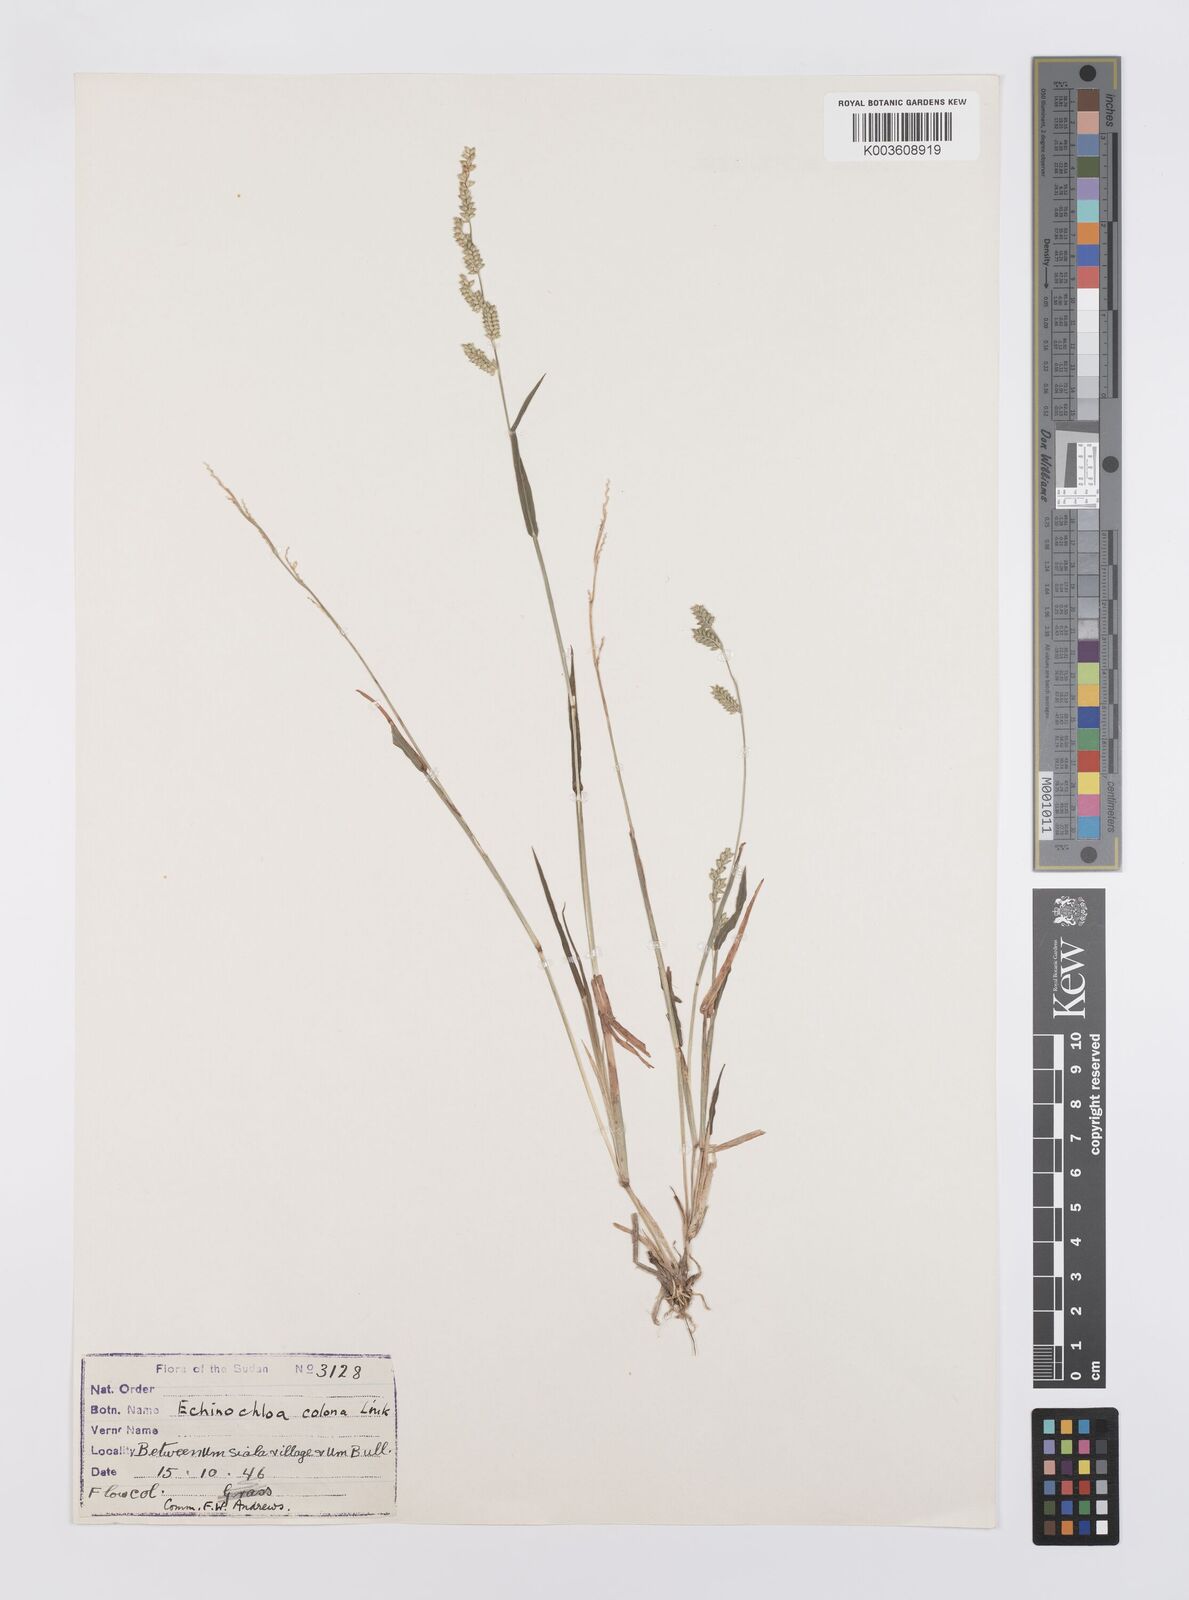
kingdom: Plantae
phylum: Tracheophyta
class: Liliopsida
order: Poales
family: Poaceae
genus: Echinochloa
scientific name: Echinochloa colonum
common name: Jungle rice
